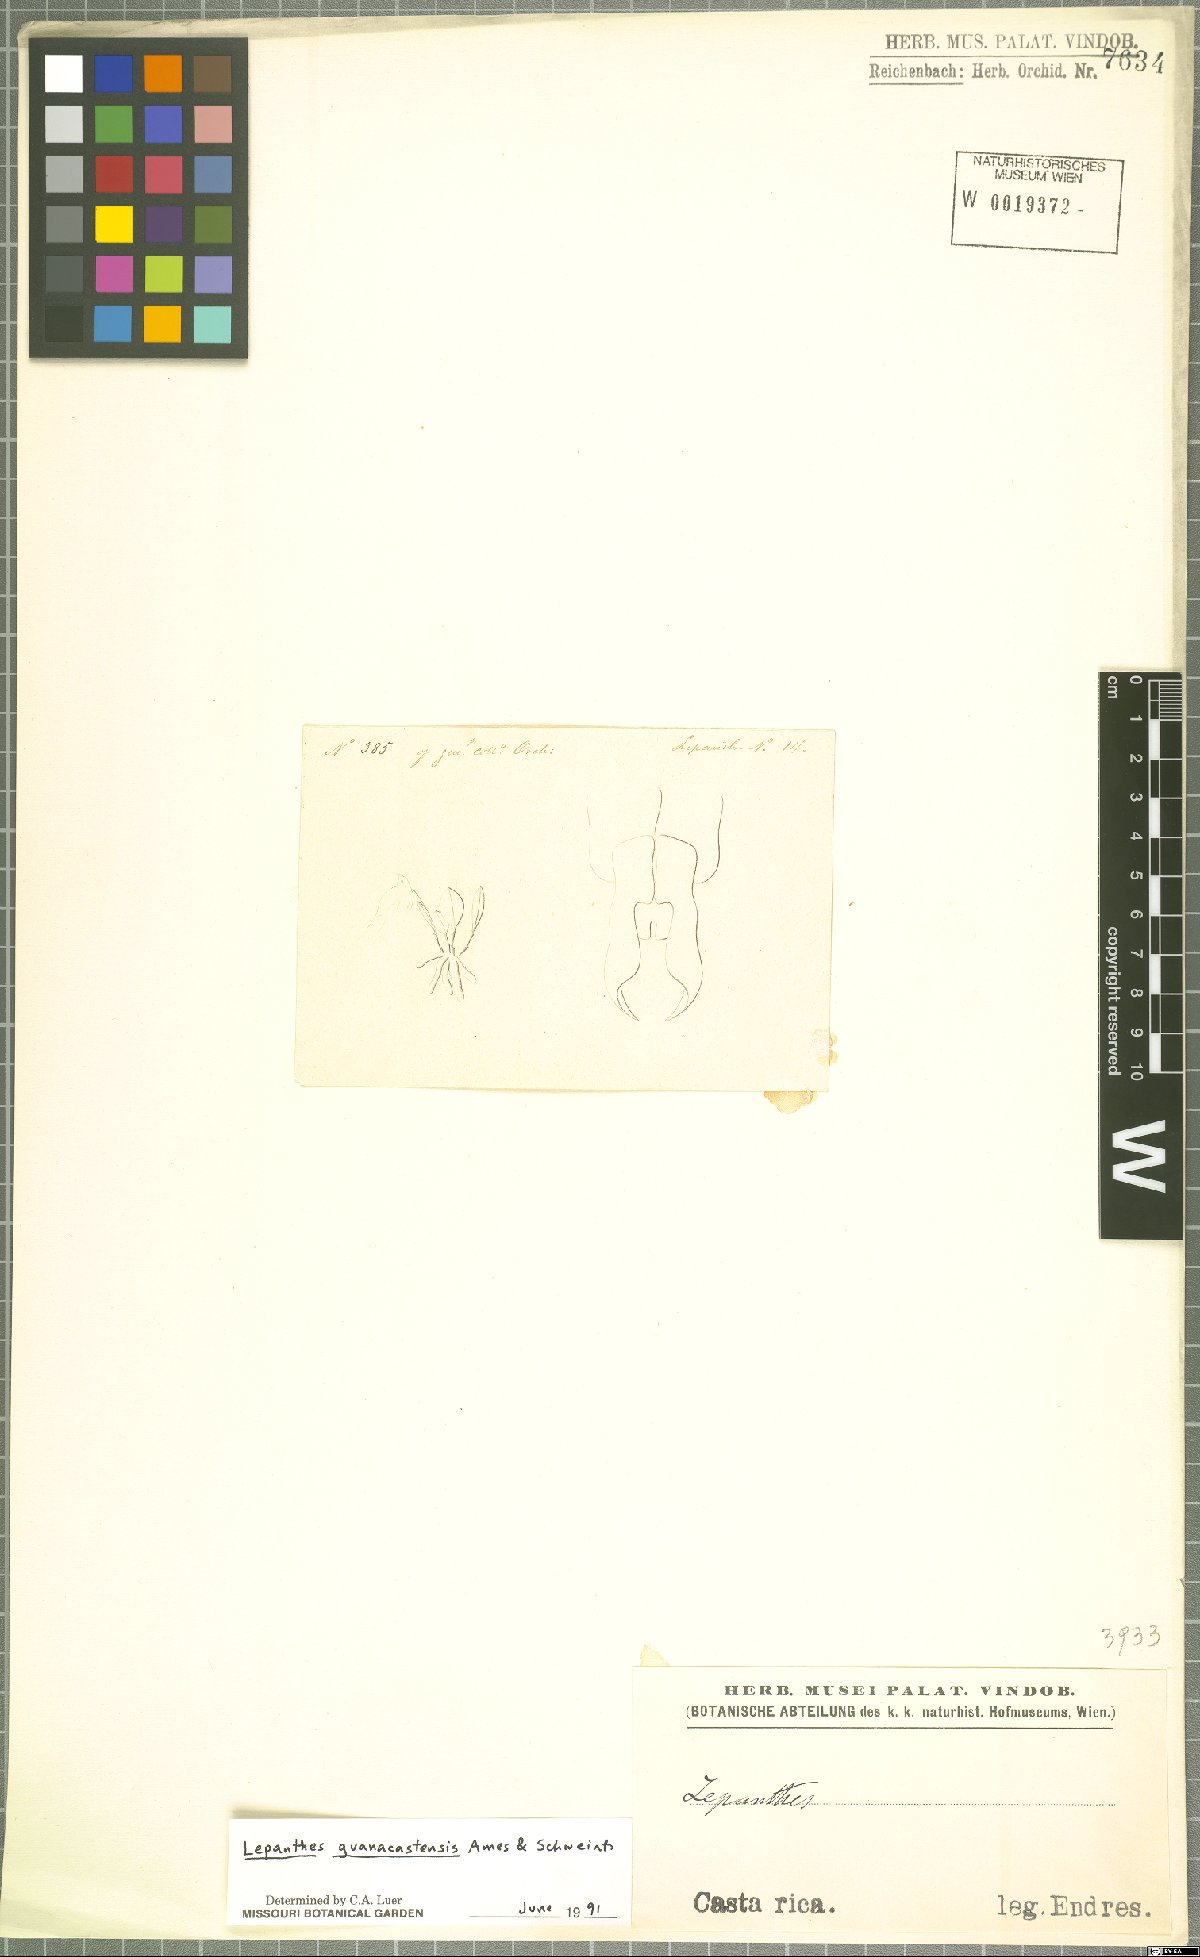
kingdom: Plantae
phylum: Tracheophyta
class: Liliopsida
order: Asparagales
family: Orchidaceae
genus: Lepanthes
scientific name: Lepanthes guanacastensis
